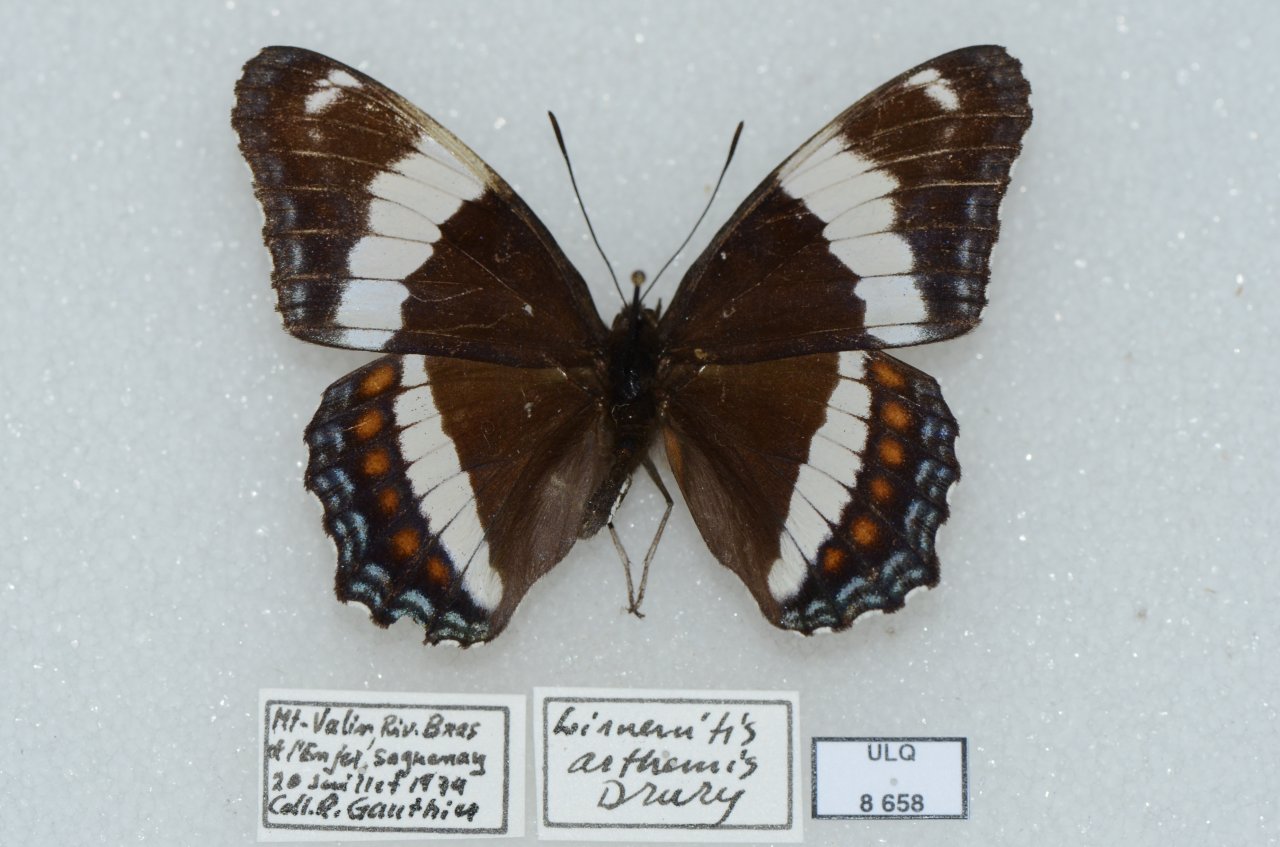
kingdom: Animalia
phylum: Arthropoda
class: Insecta
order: Lepidoptera
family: Nymphalidae
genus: Limenitis
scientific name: Limenitis arthemis
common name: Red-spotted Admiral
